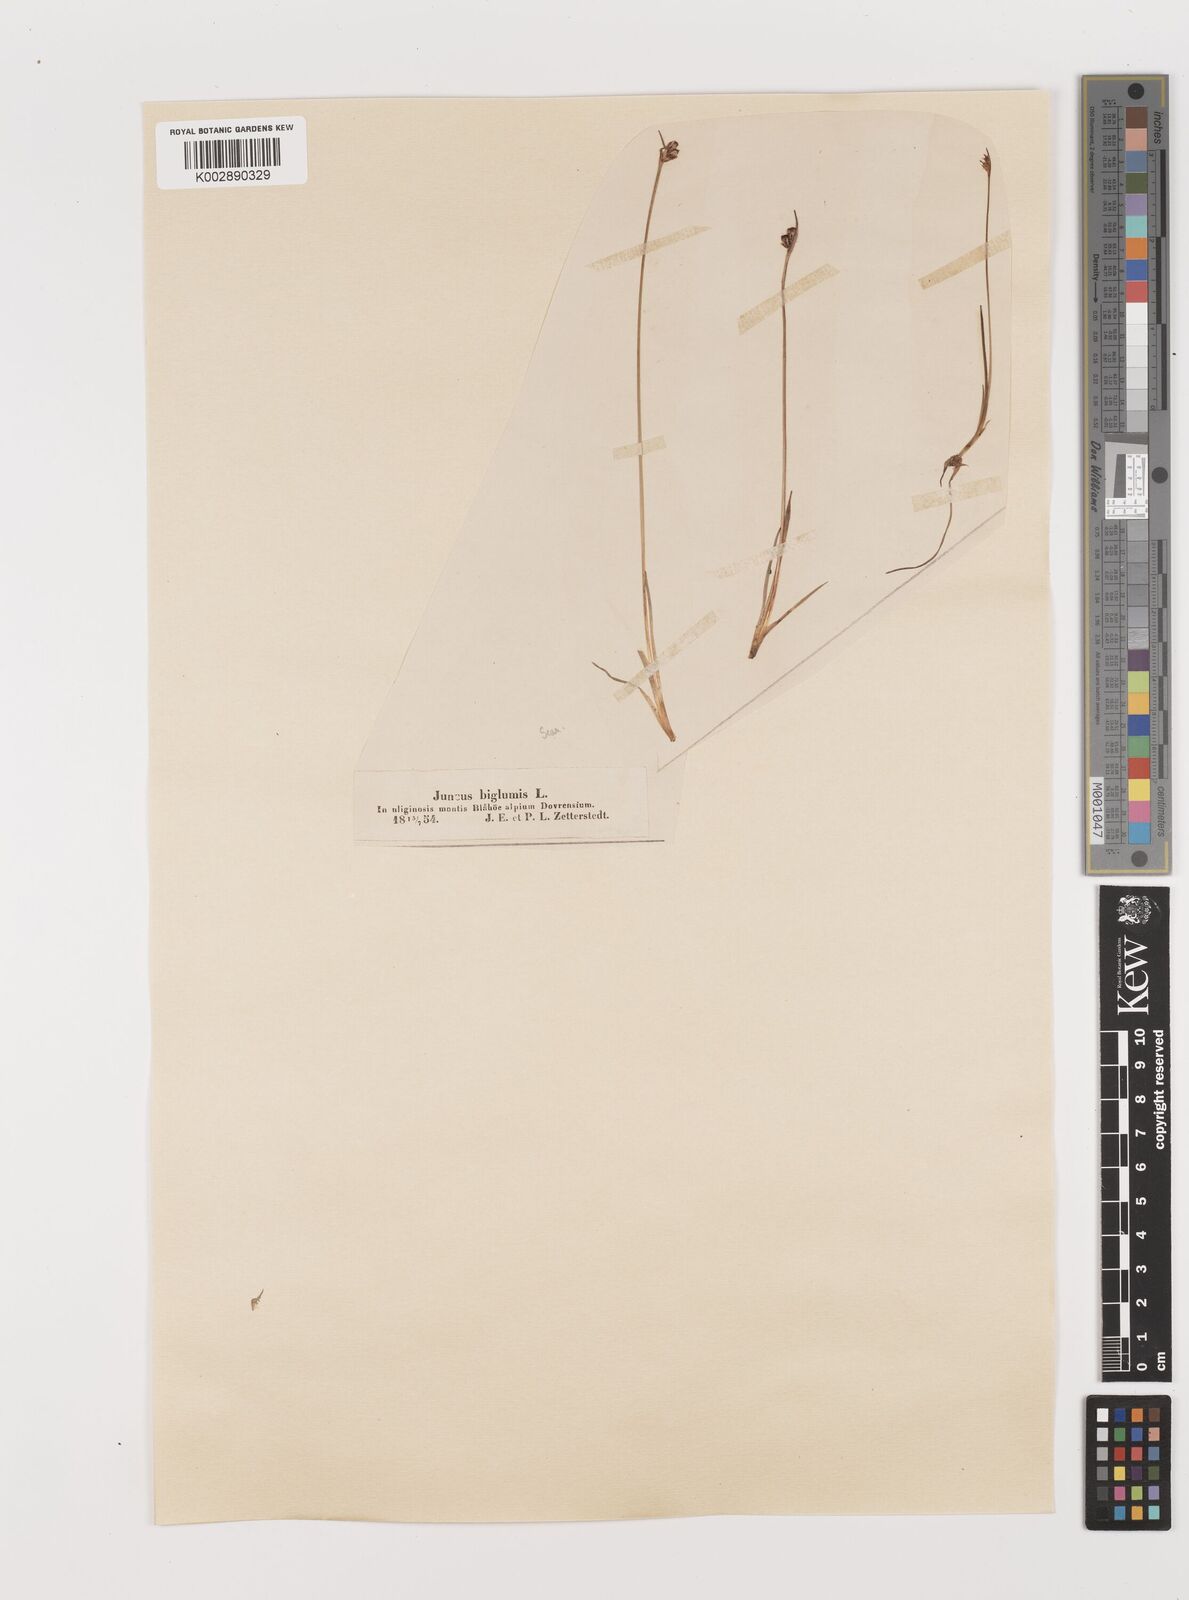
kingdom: Plantae
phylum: Tracheophyta
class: Liliopsida
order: Poales
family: Juncaceae
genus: Juncus
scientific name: Juncus biglumis
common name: Two-flowered rush
